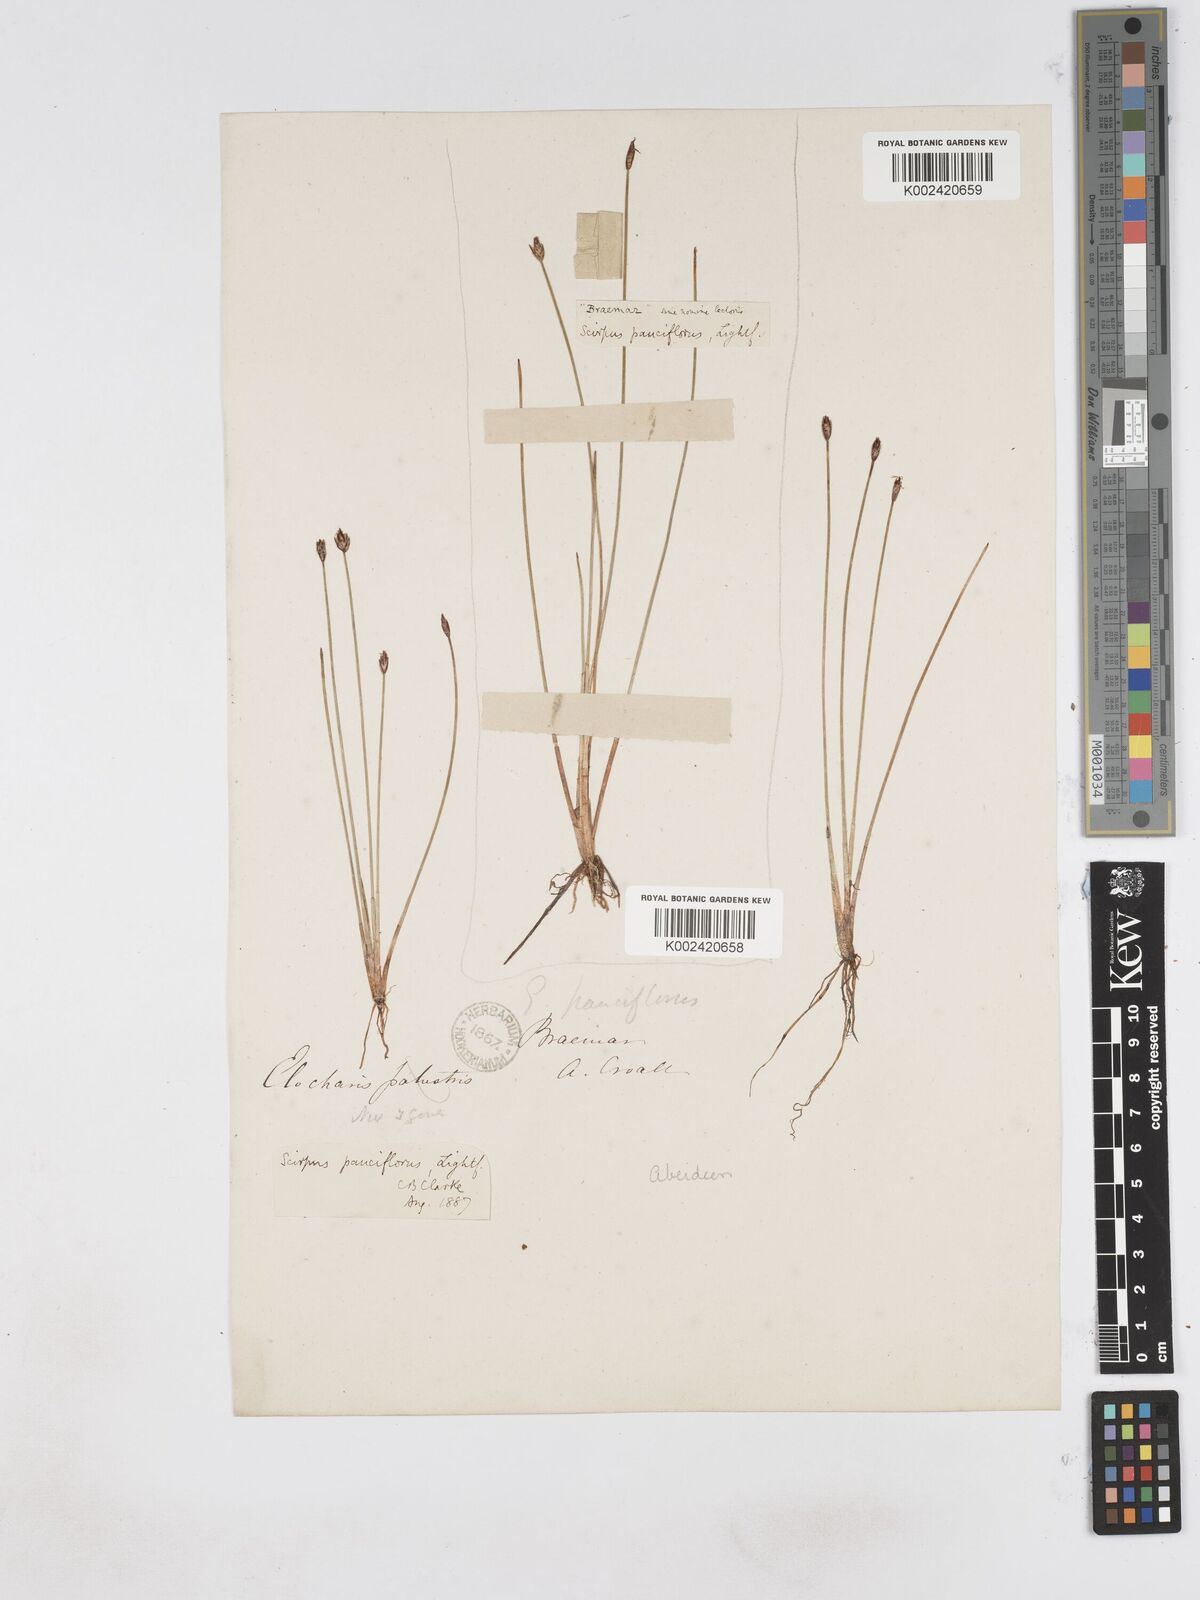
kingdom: Plantae
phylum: Tracheophyta
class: Liliopsida
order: Poales
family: Cyperaceae
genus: Eleocharis
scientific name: Eleocharis quinqueflora
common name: Few-flowered spike-rush
